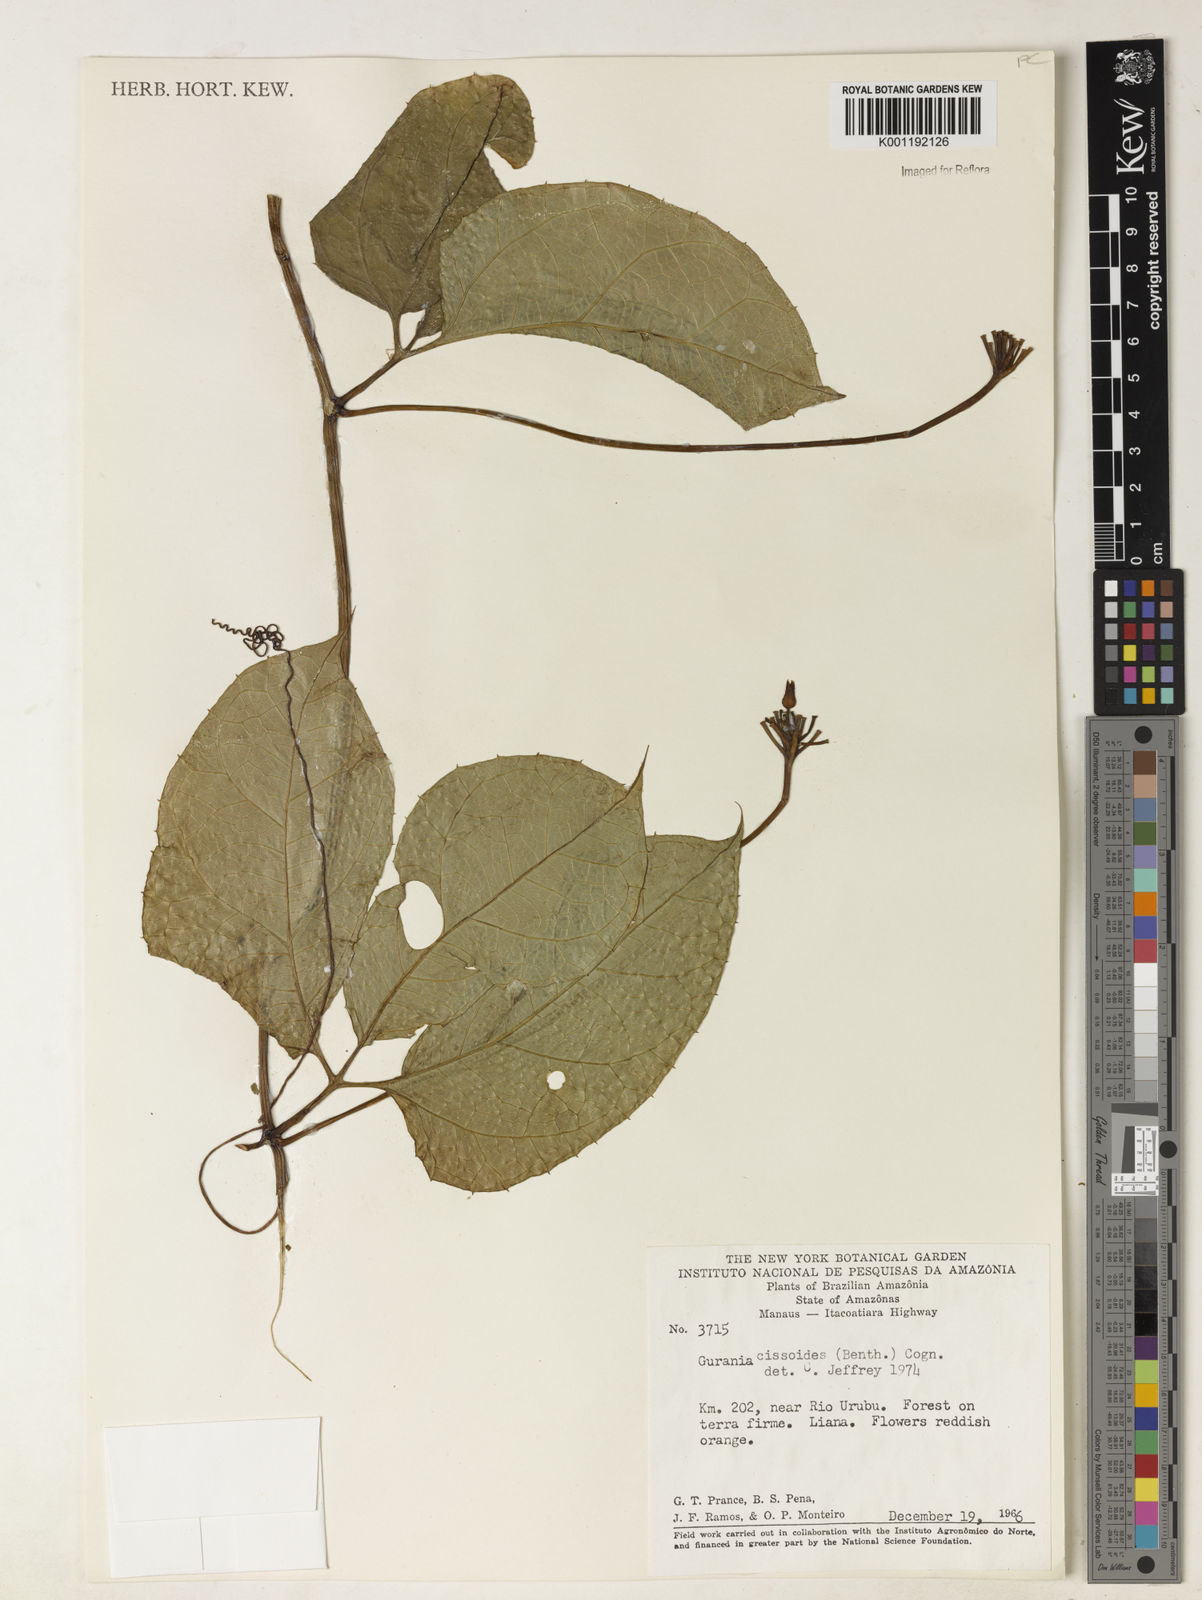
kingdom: Plantae
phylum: Tracheophyta
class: Magnoliopsida
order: Cucurbitales
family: Cucurbitaceae
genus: Gurania
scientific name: Gurania bignoniacea
